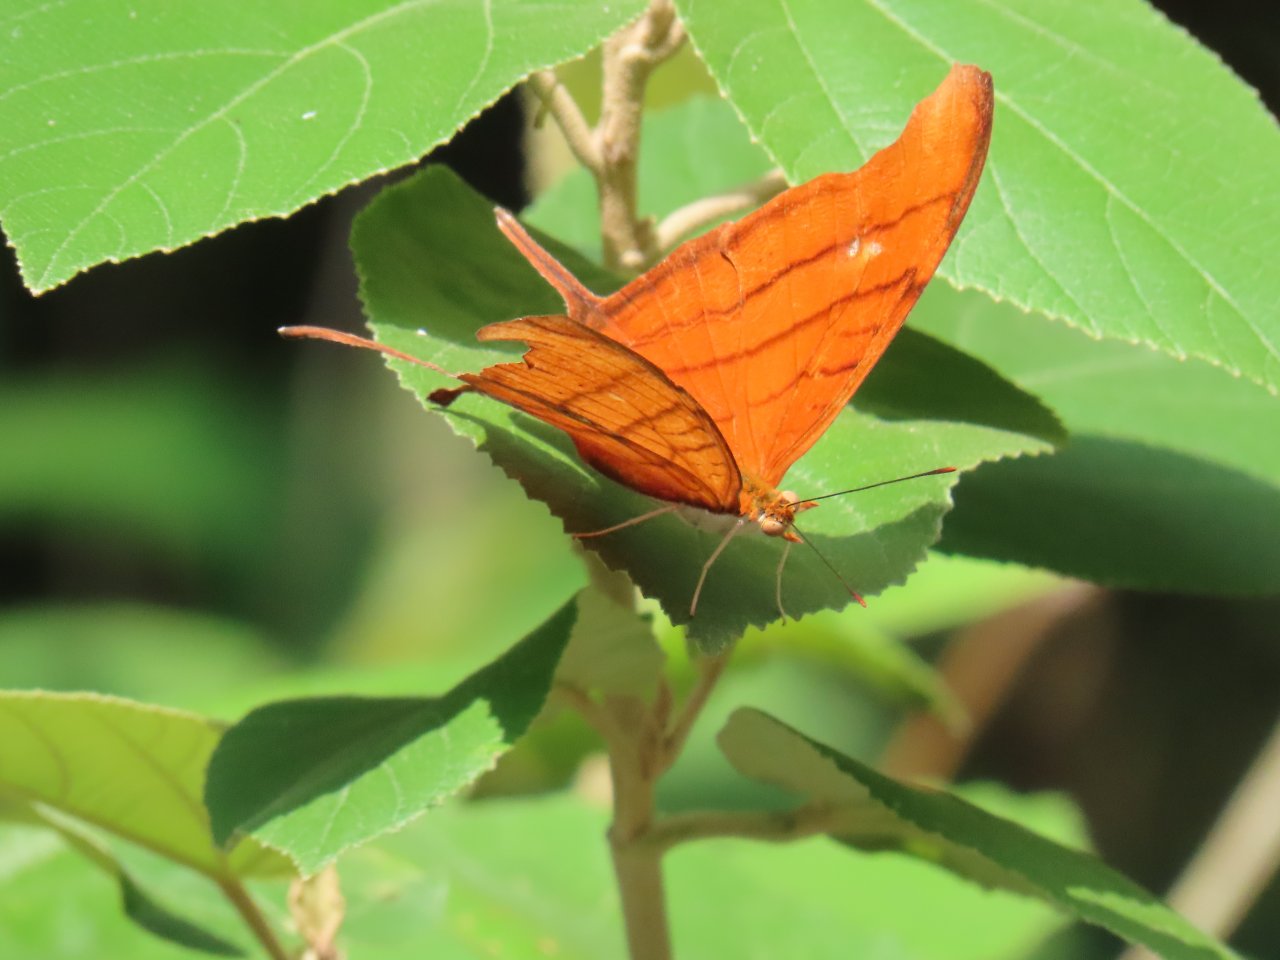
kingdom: Animalia
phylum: Arthropoda
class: Insecta
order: Lepidoptera
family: Nymphalidae
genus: Marpesia
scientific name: Marpesia petreus
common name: Ruddy Daggerwing
